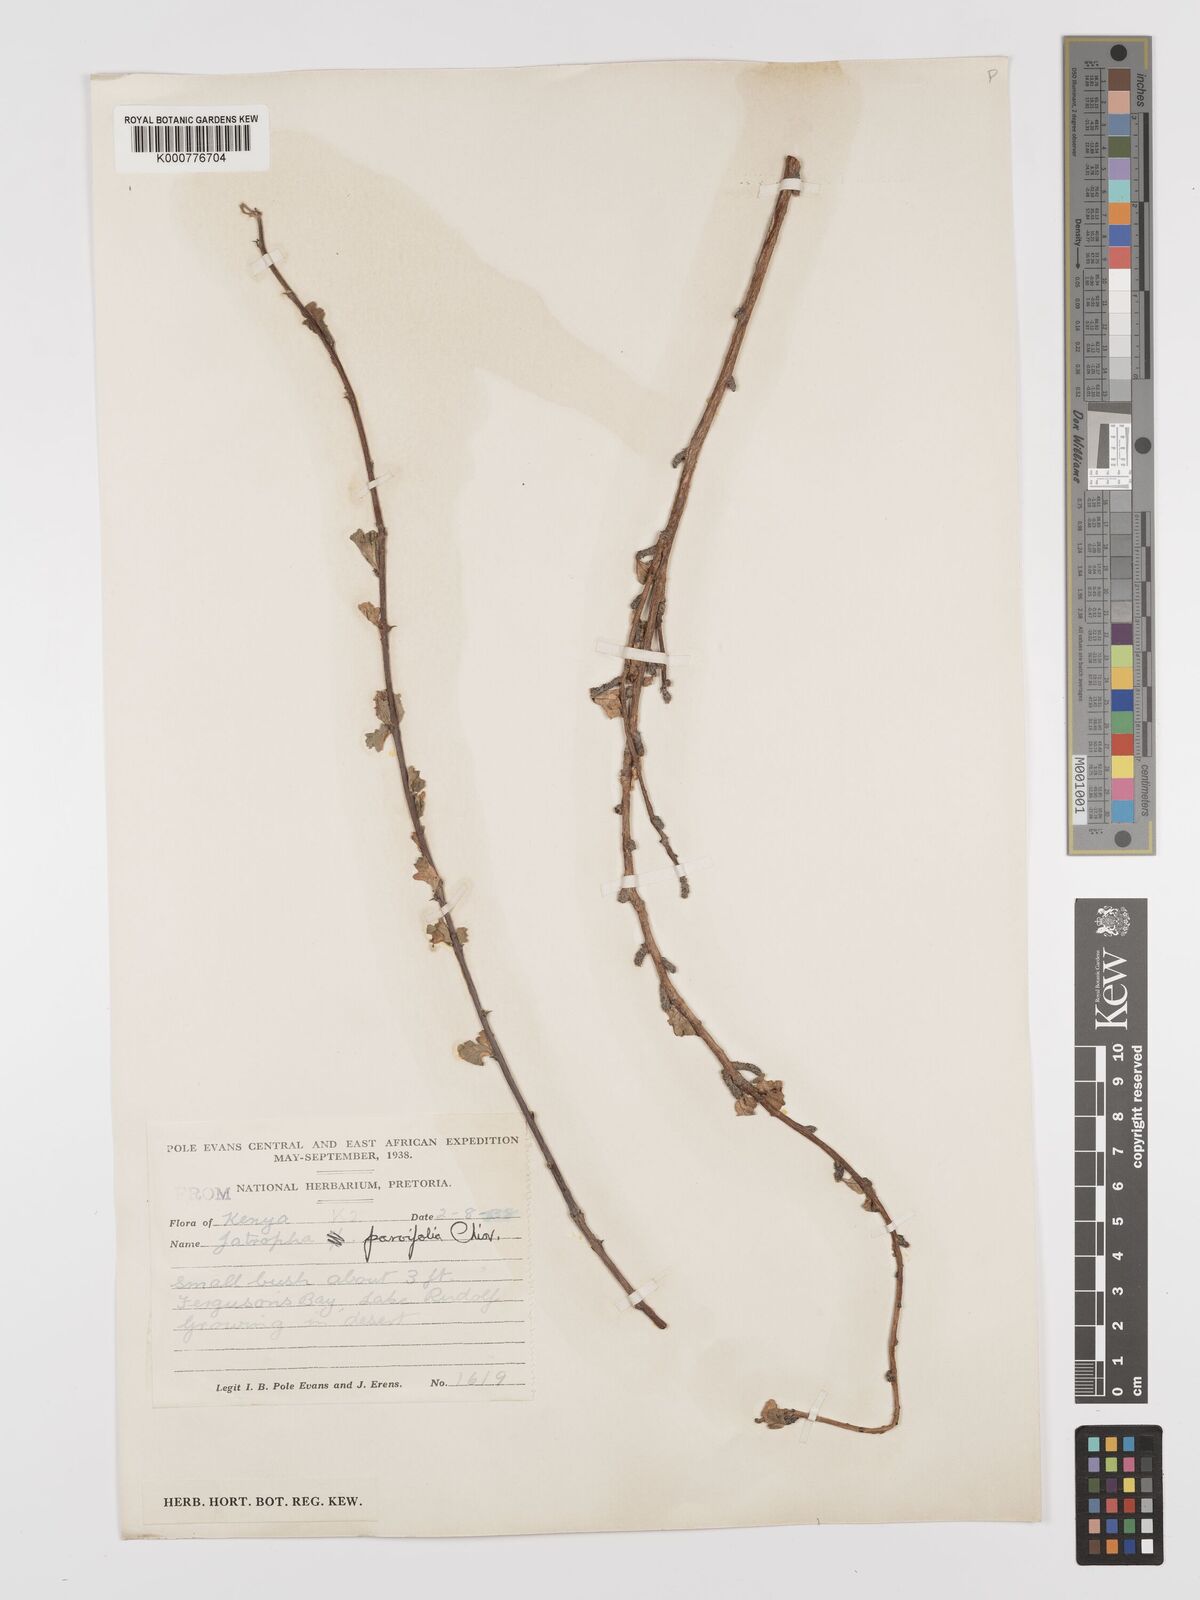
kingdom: Plantae
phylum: Tracheophyta
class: Magnoliopsida
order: Malpighiales
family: Euphorbiaceae
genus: Jatropha
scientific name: Jatropha rivae
